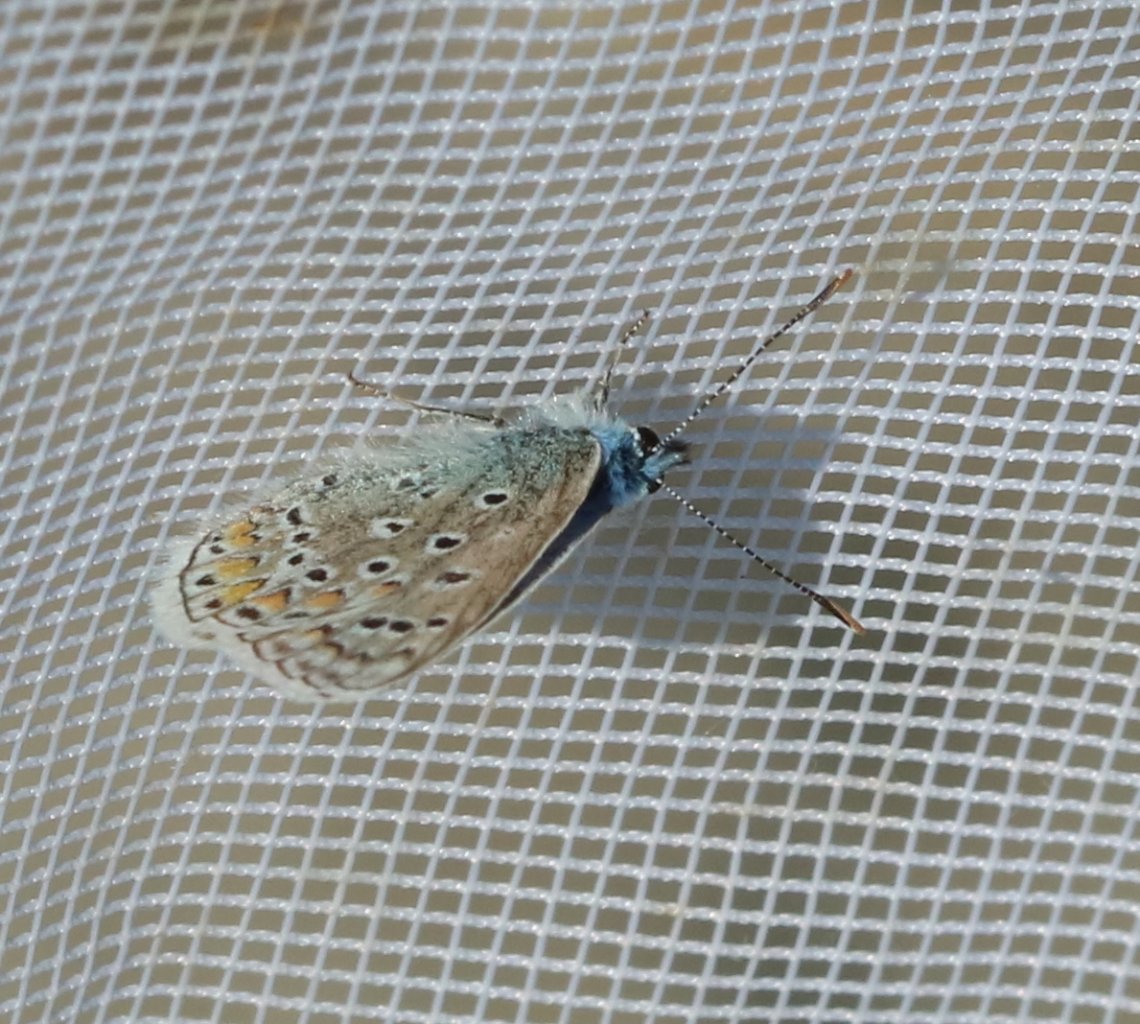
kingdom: Animalia
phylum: Arthropoda
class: Insecta
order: Lepidoptera
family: Lycaenidae
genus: Polyommatus
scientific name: Polyommatus icarus
